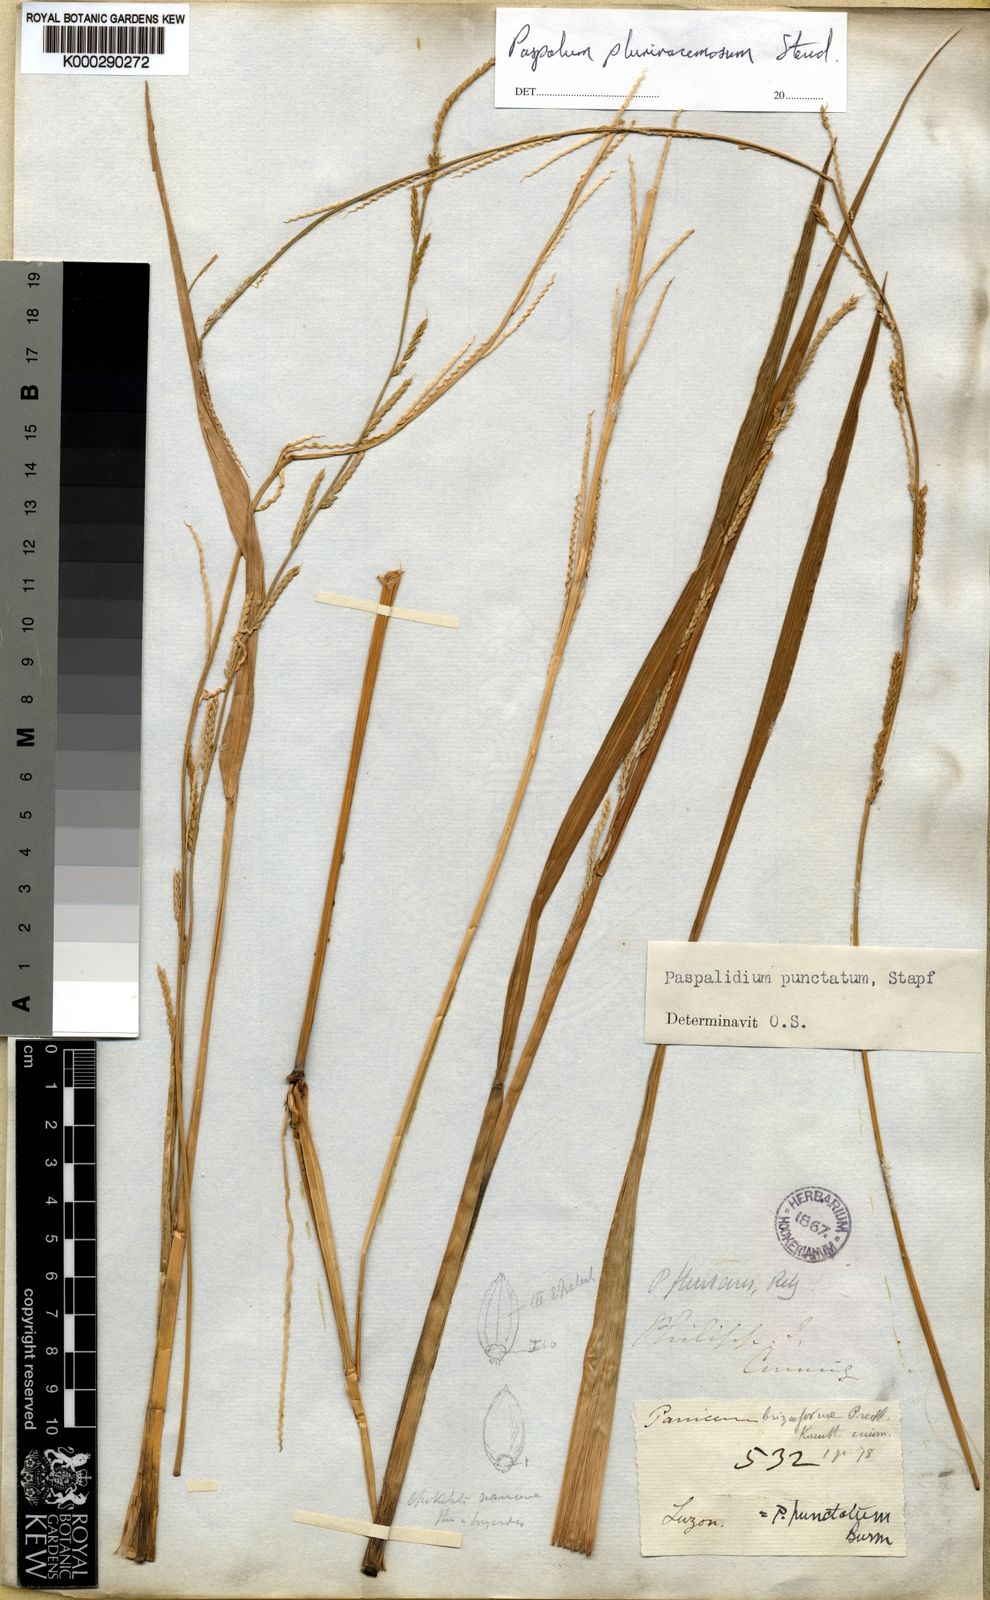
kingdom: Plantae
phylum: Tracheophyta
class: Liliopsida
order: Poales
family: Poaceae
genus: Setaria
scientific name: Setaria
